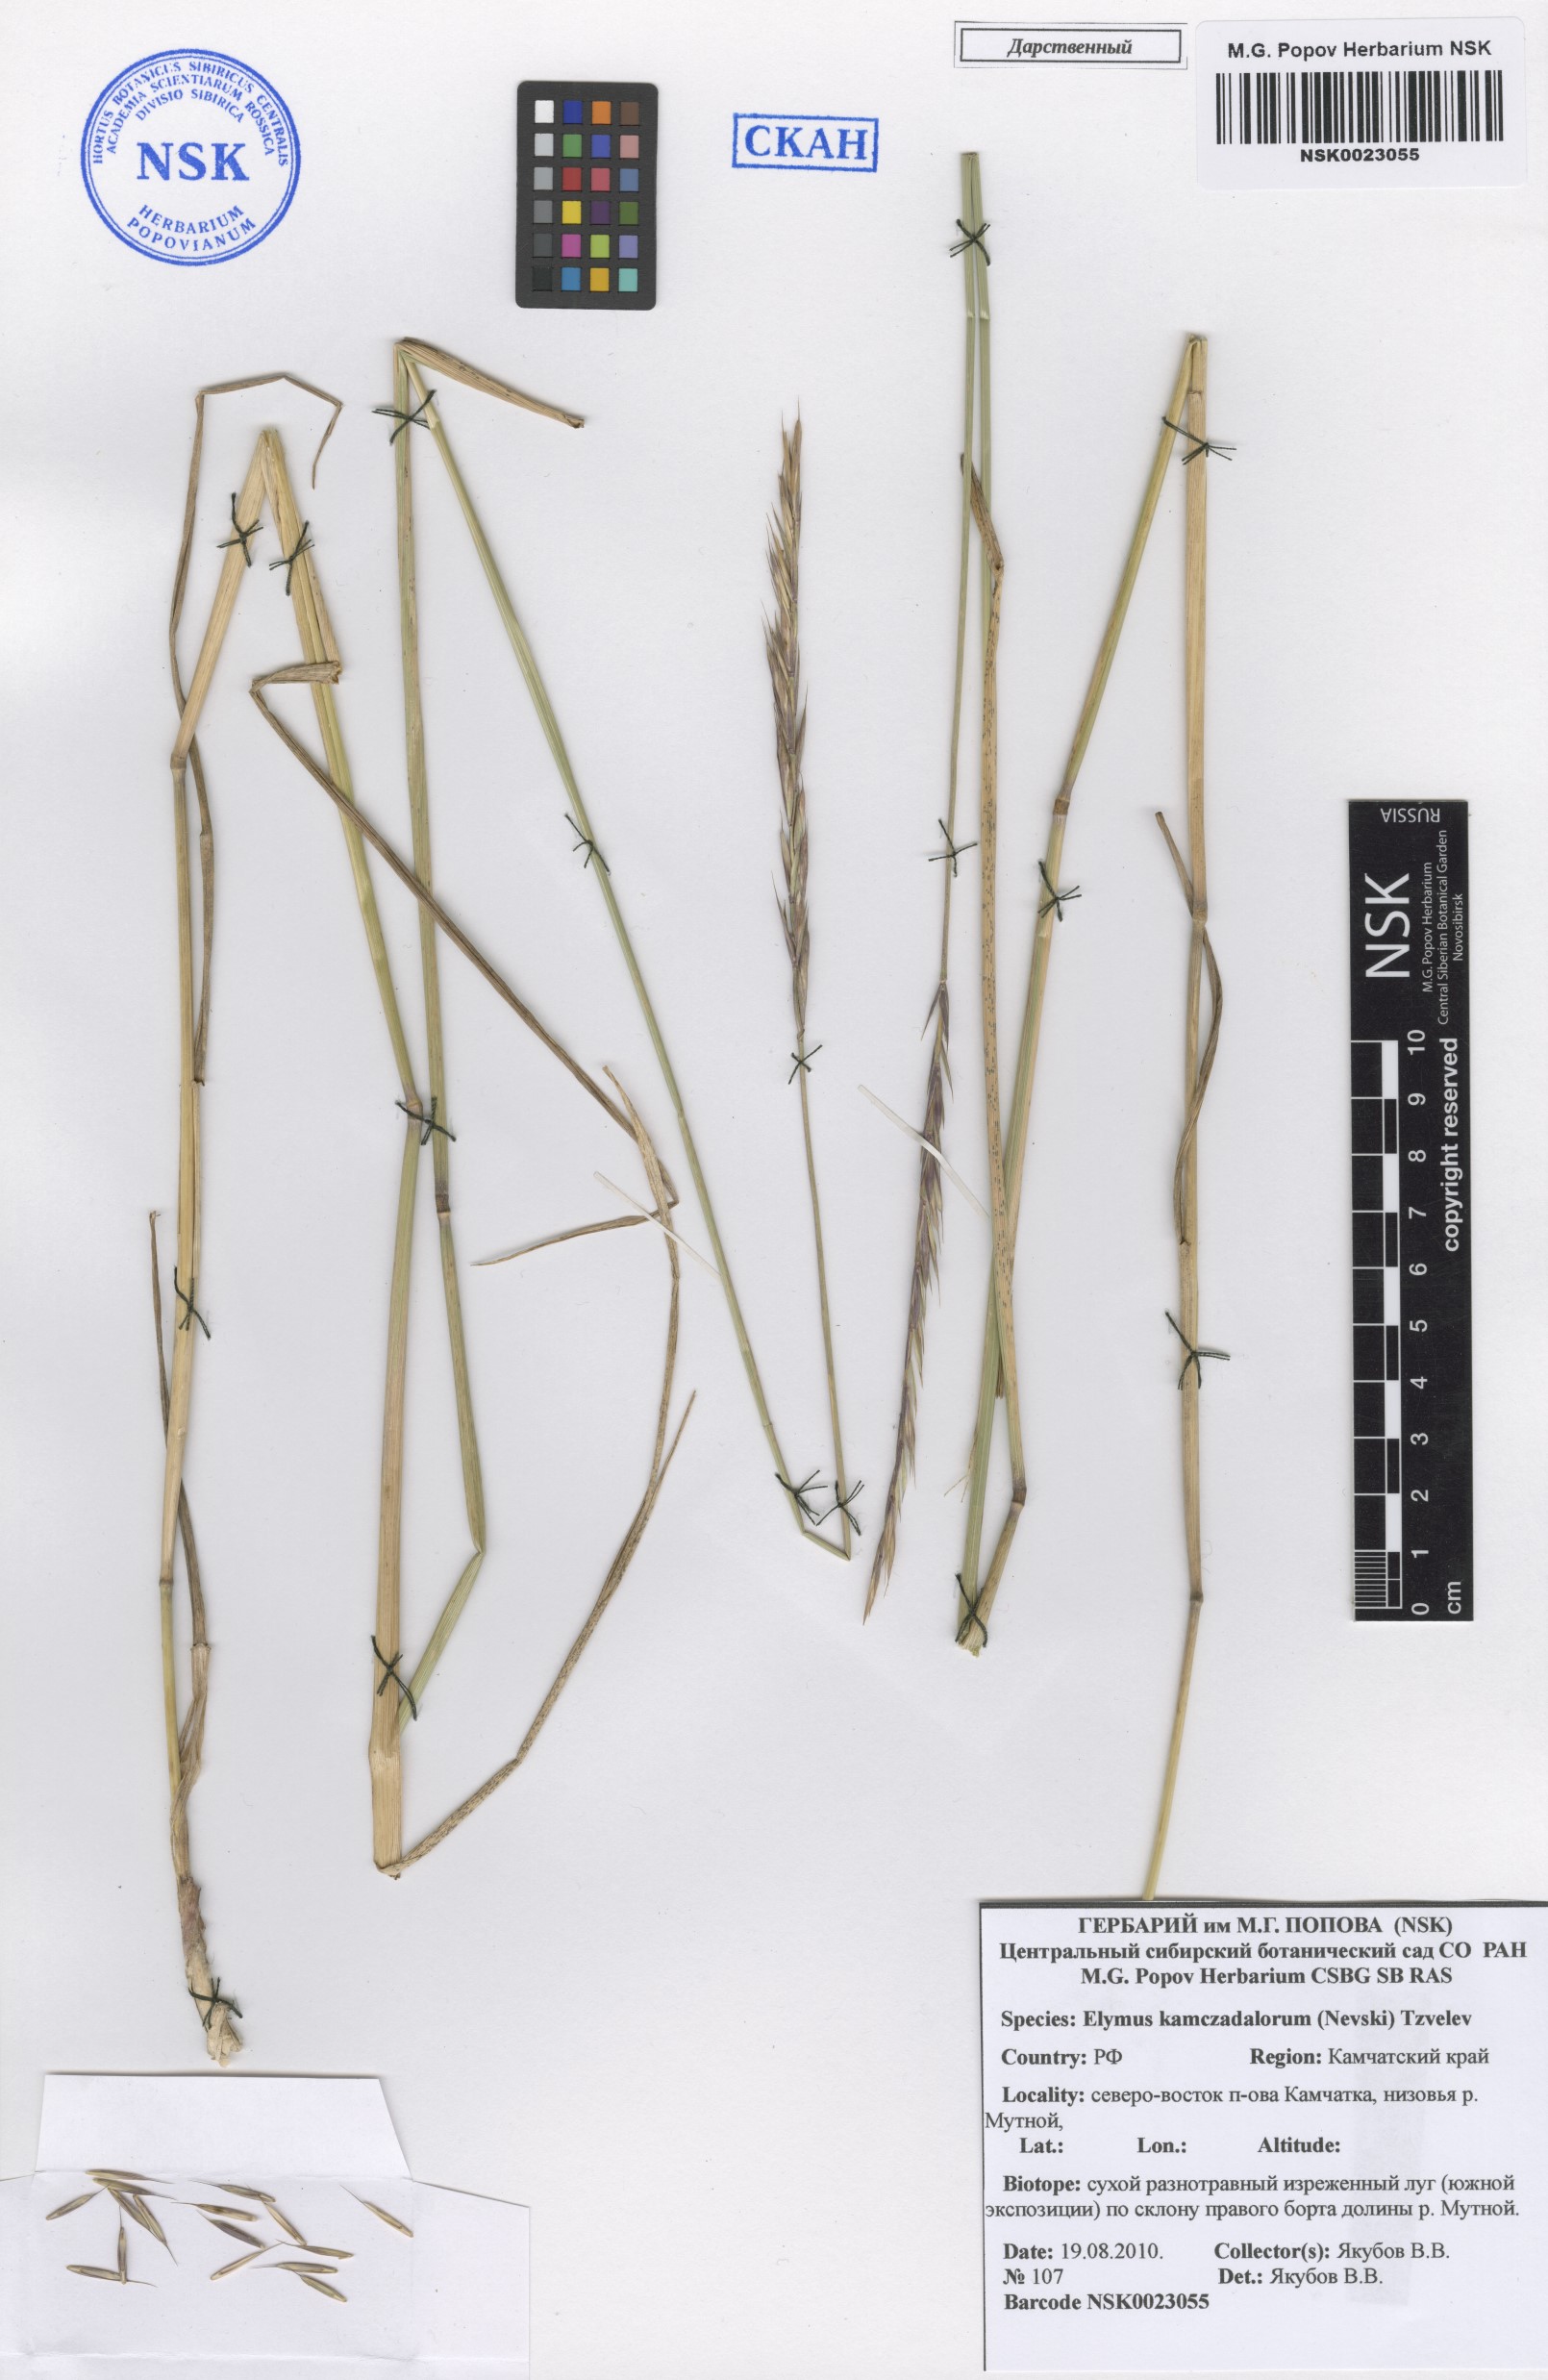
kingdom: Plantae
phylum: Tracheophyta
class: Liliopsida
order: Poales
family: Poaceae
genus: Elymus
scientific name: Elymus violaceus
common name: Arctic wheatgrass
